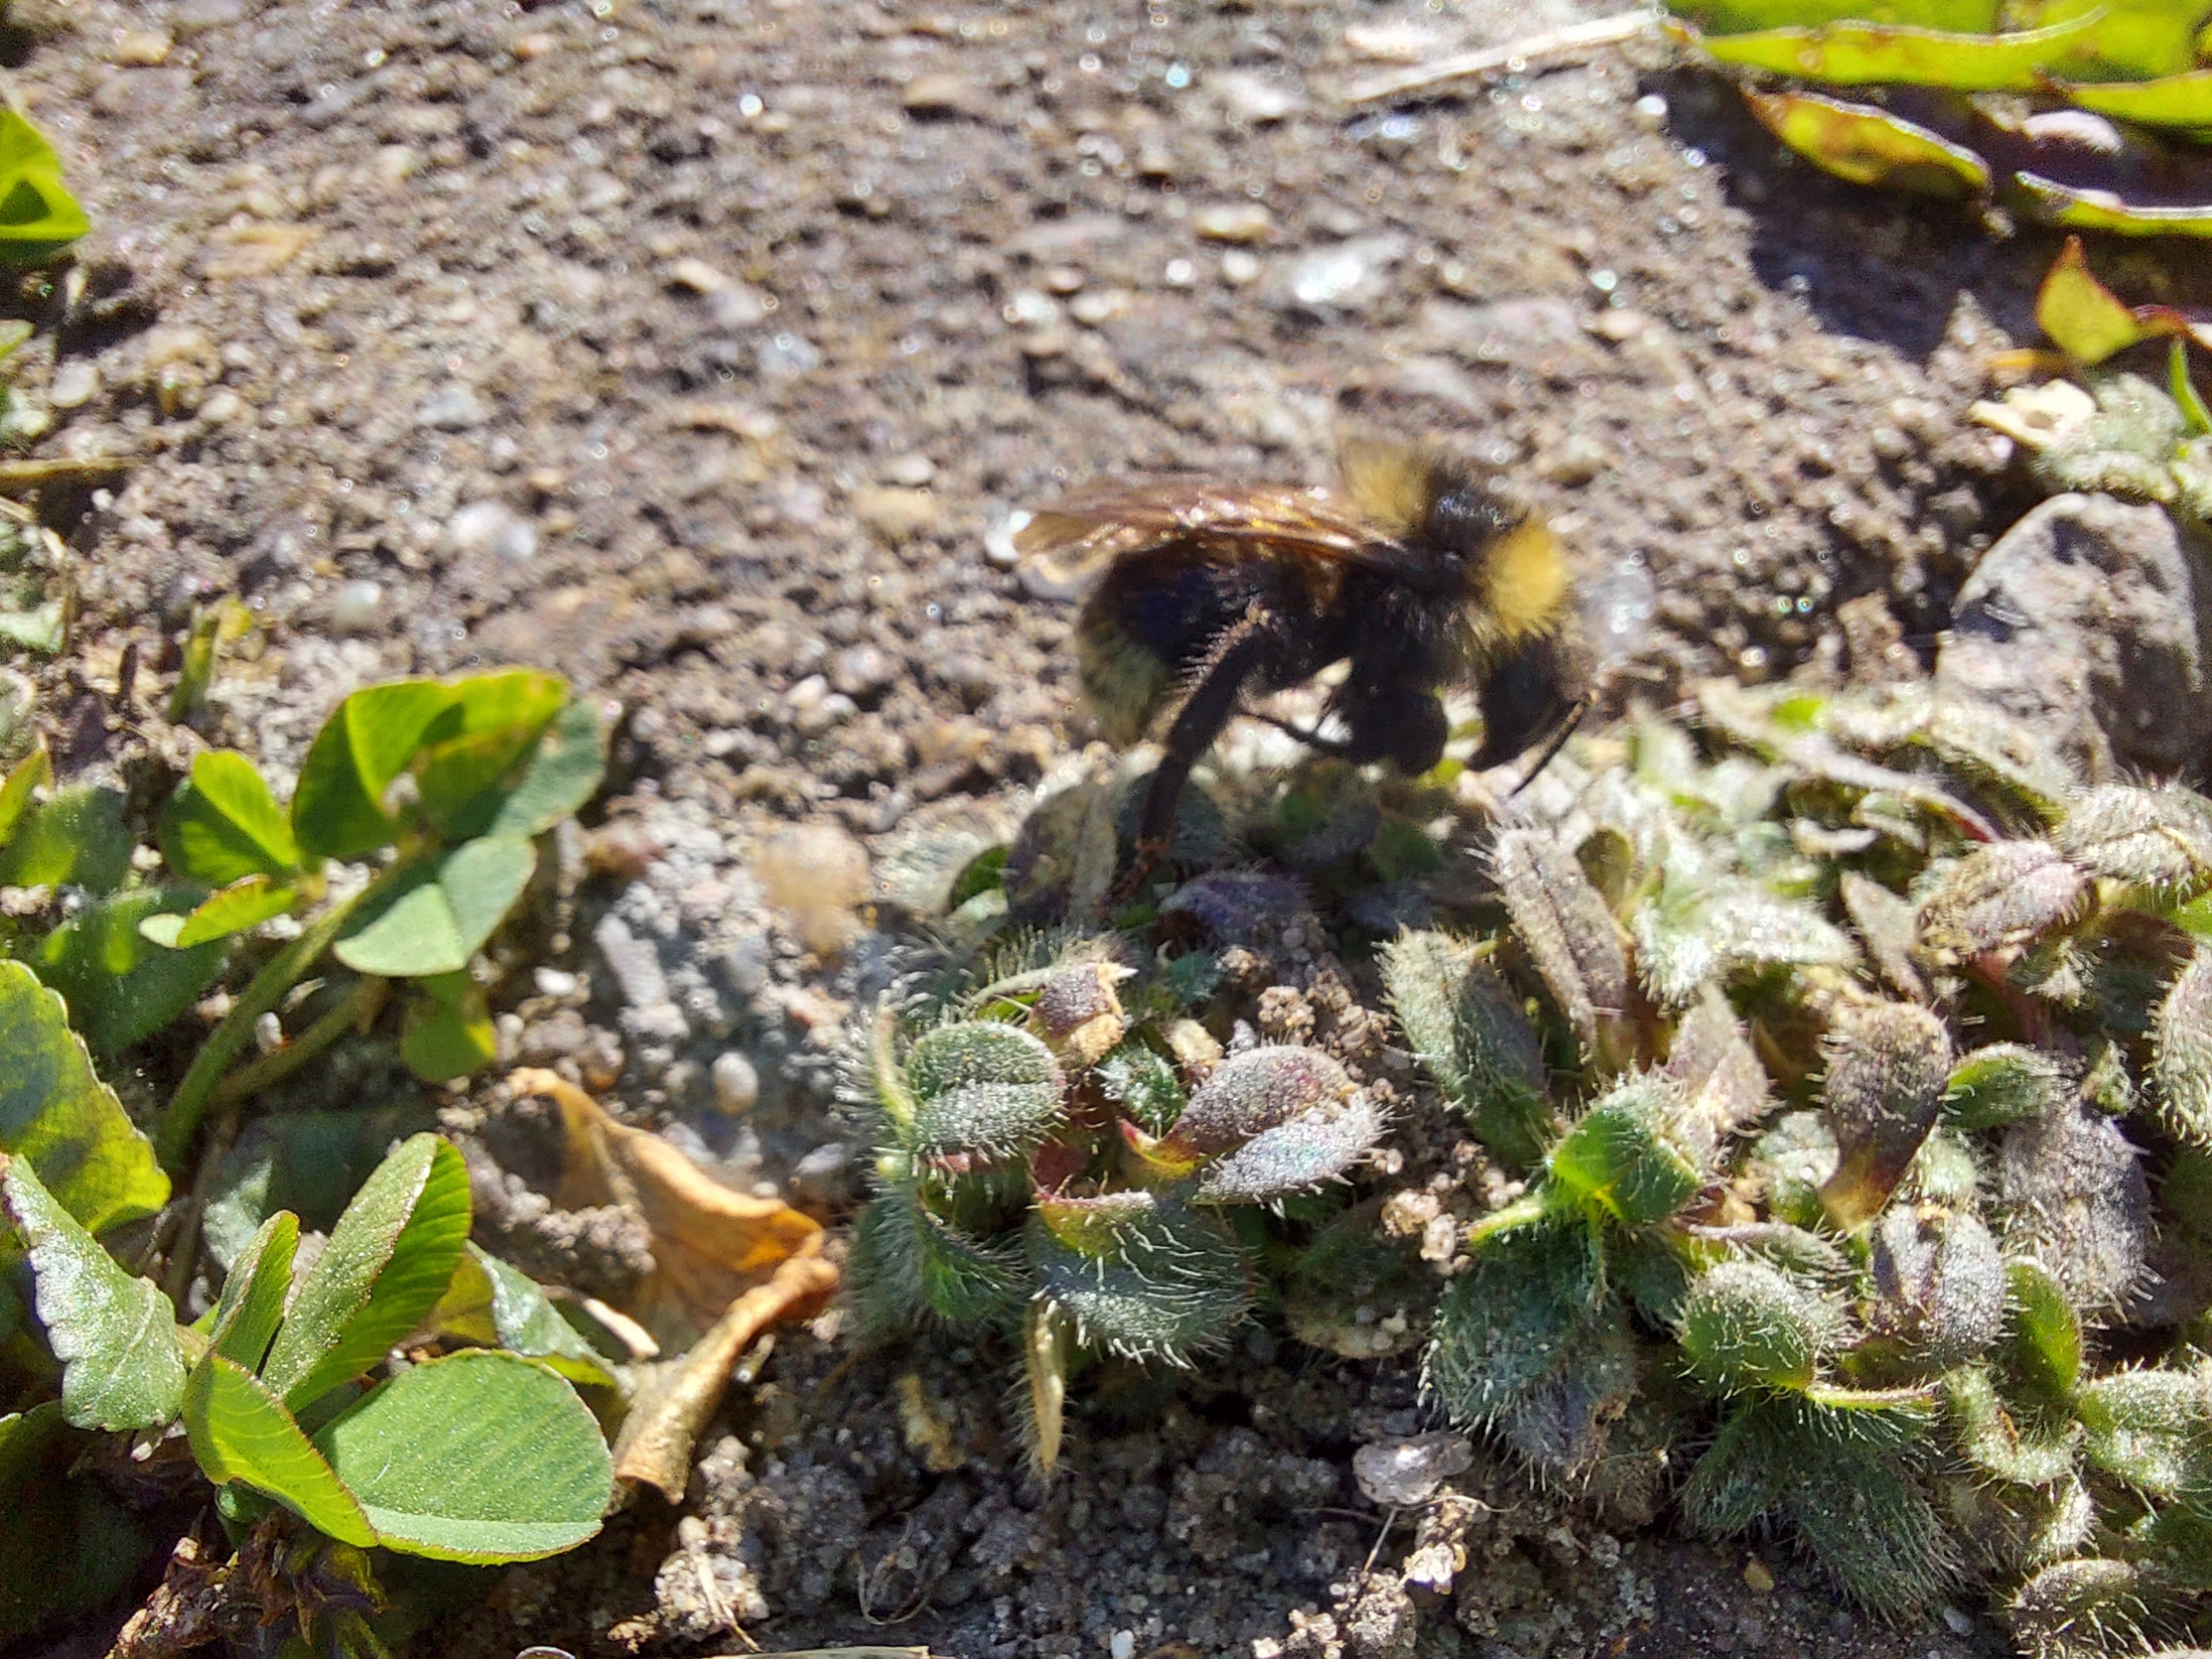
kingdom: Animalia
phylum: Arthropoda
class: Insecta
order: Hymenoptera
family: Apidae
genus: Bombus
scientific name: Bombus hortorum
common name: Havehumle
